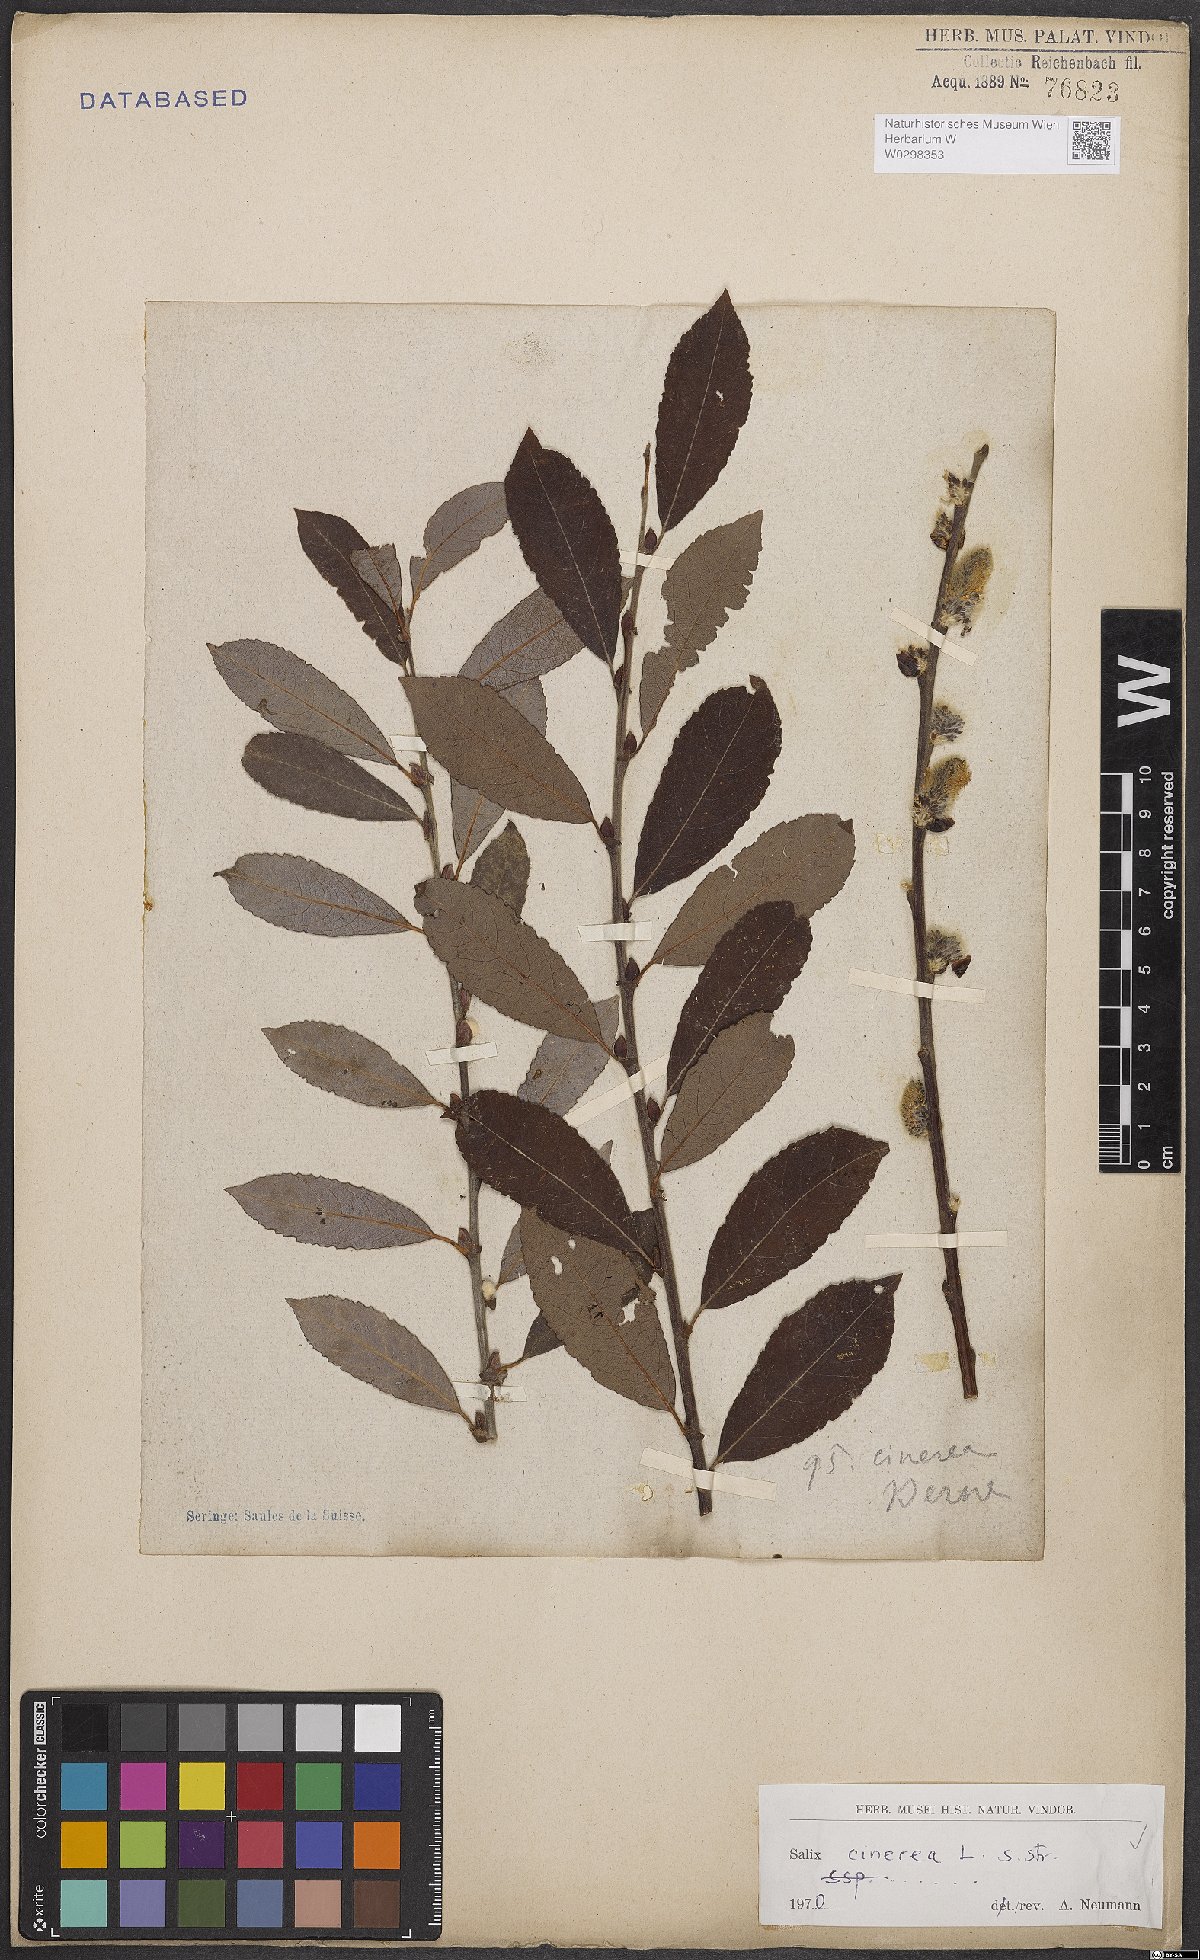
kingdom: Plantae
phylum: Tracheophyta
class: Magnoliopsida
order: Malpighiales
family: Salicaceae
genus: Salix
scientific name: Salix cinerea
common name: Common sallow
